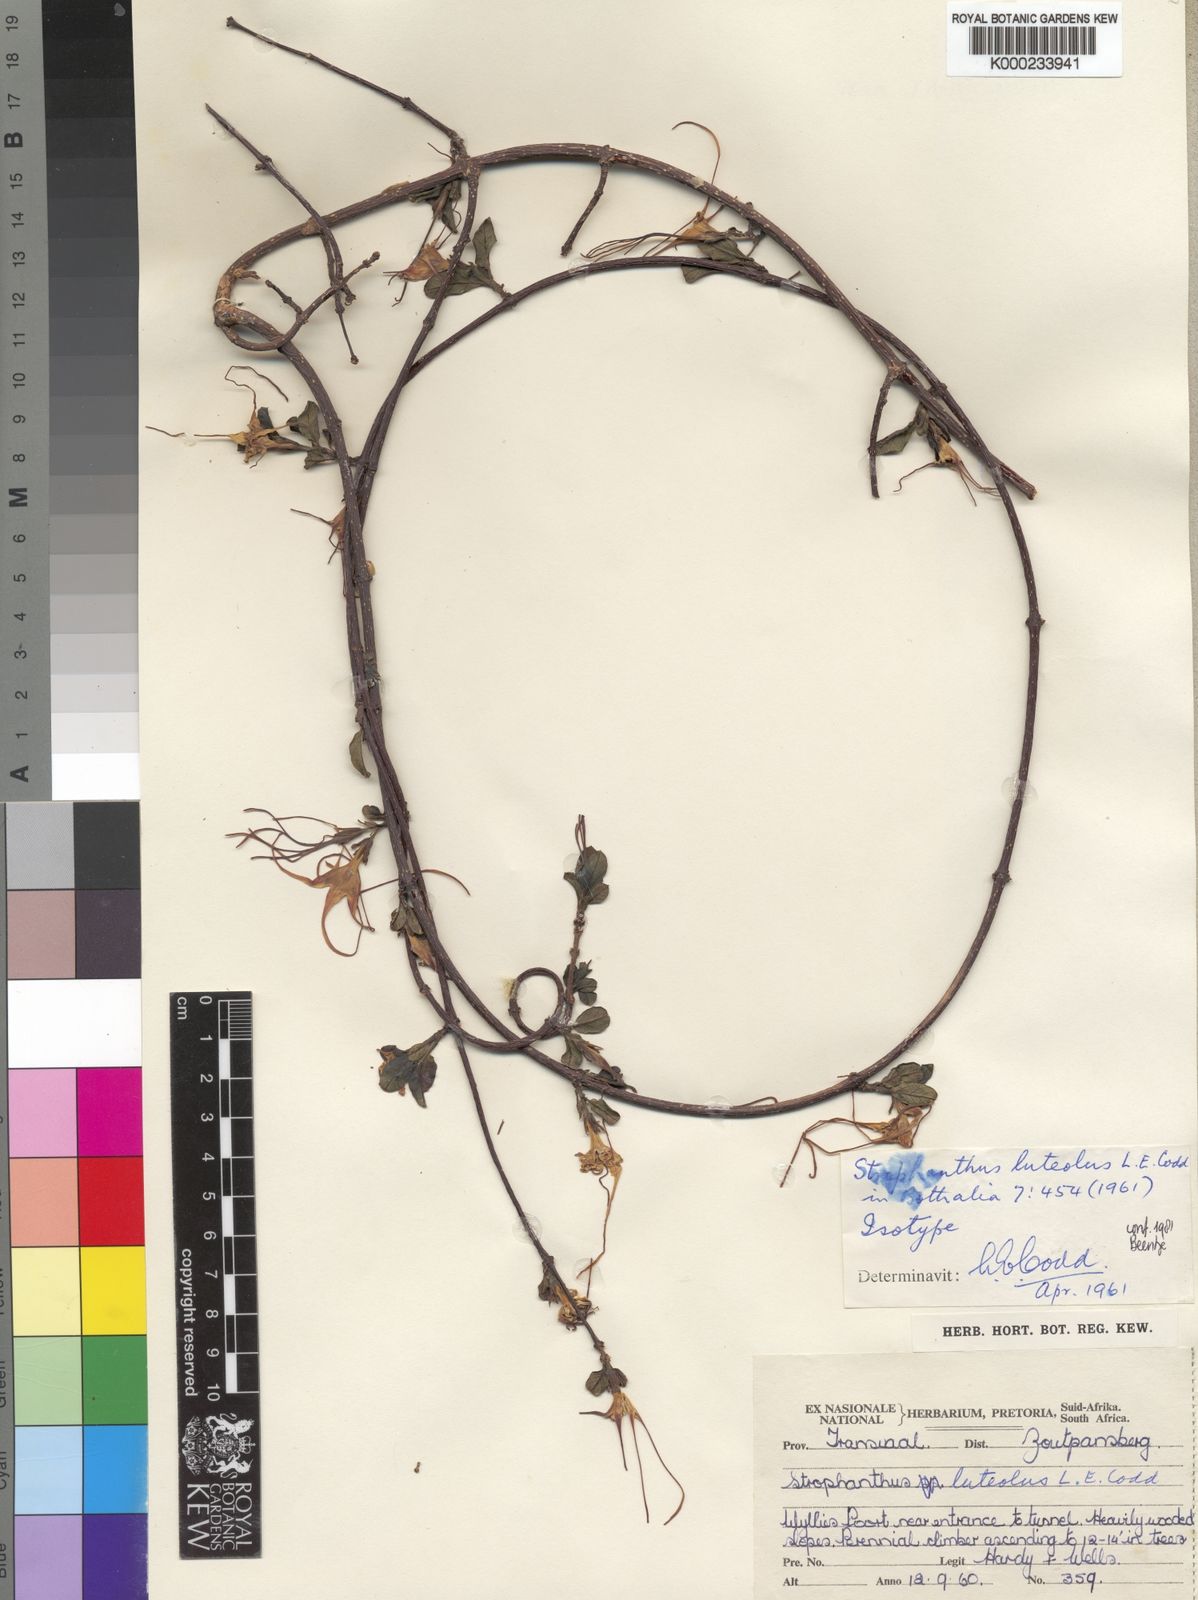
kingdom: Plantae
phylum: Tracheophyta
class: Magnoliopsida
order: Gentianales
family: Apocynaceae
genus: Strophanthus
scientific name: Strophanthus luteolus
